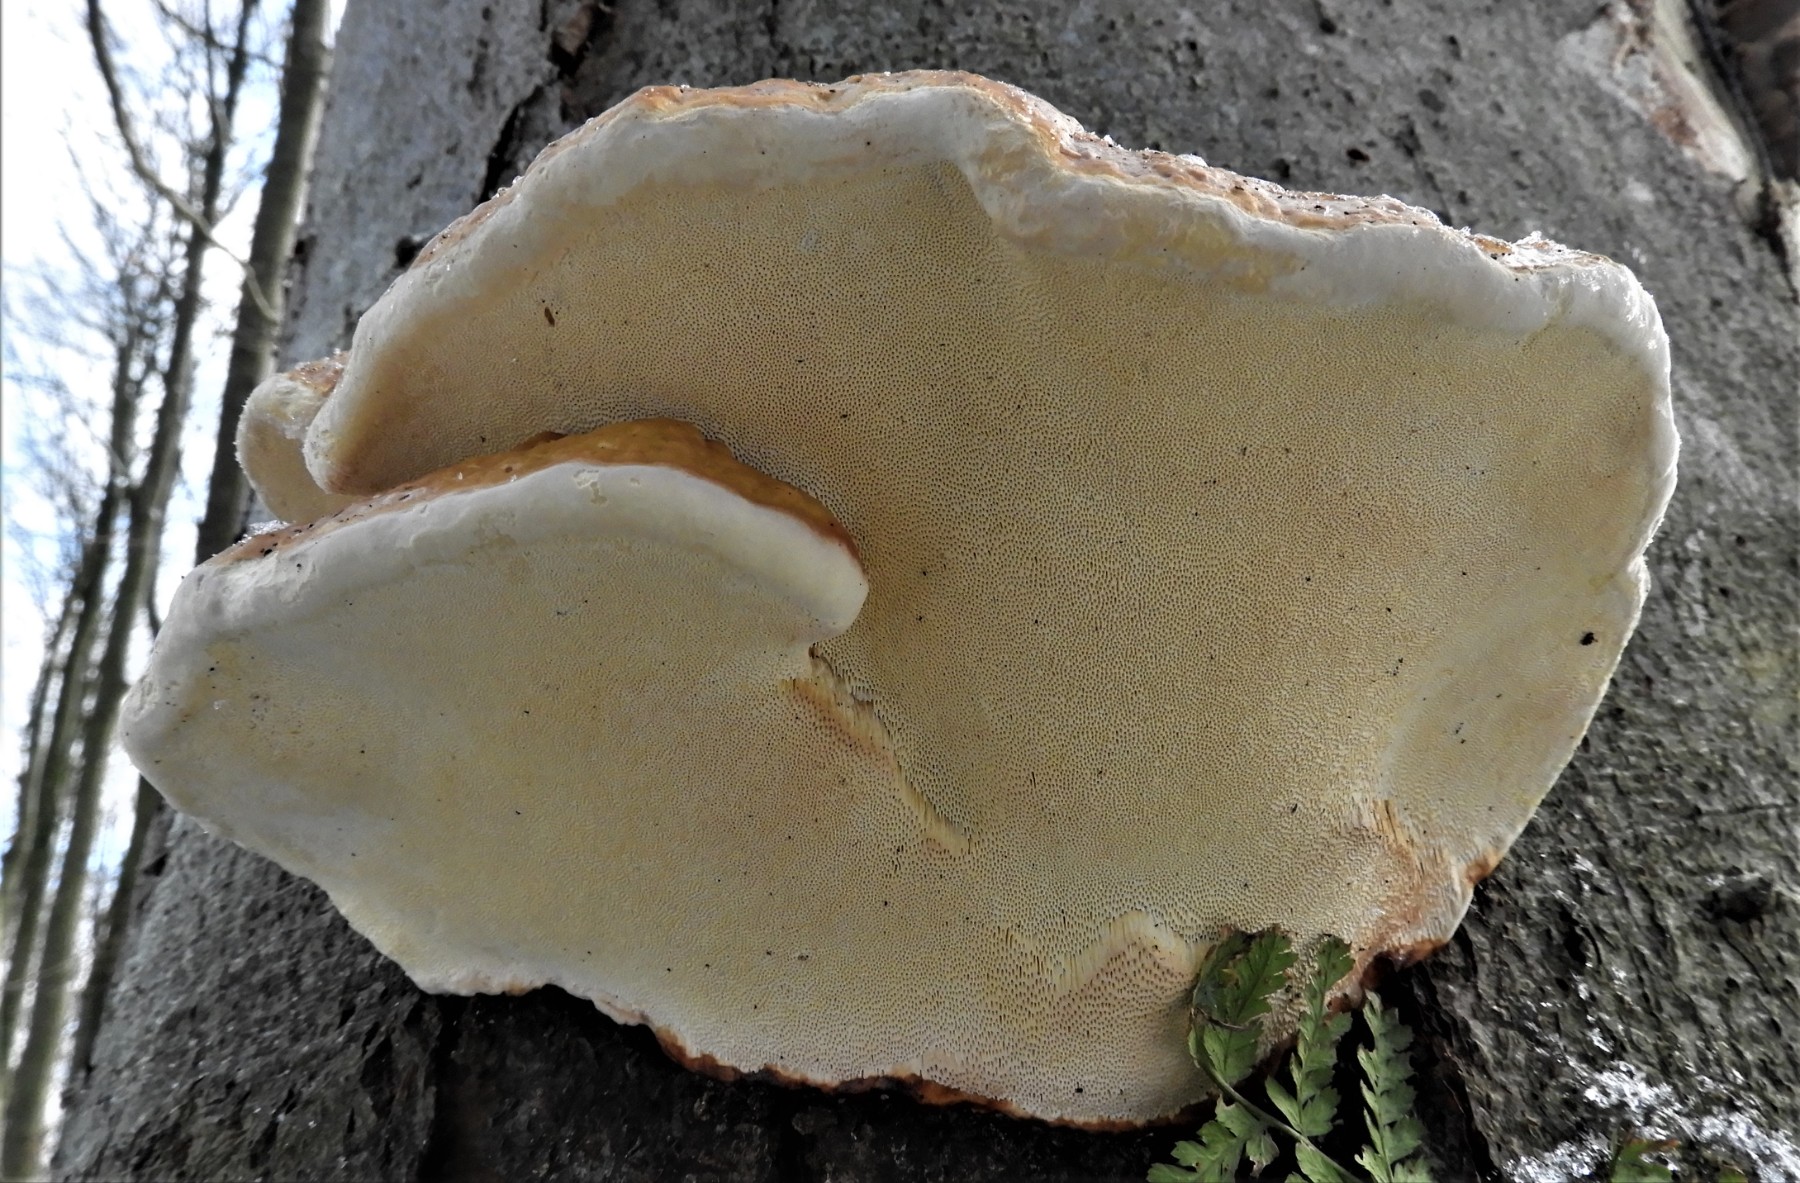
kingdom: Fungi
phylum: Basidiomycota
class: Agaricomycetes
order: Polyporales
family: Fomitopsidaceae
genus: Fomitopsis
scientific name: Fomitopsis pinicola
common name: randbæltet hovporesvamp
